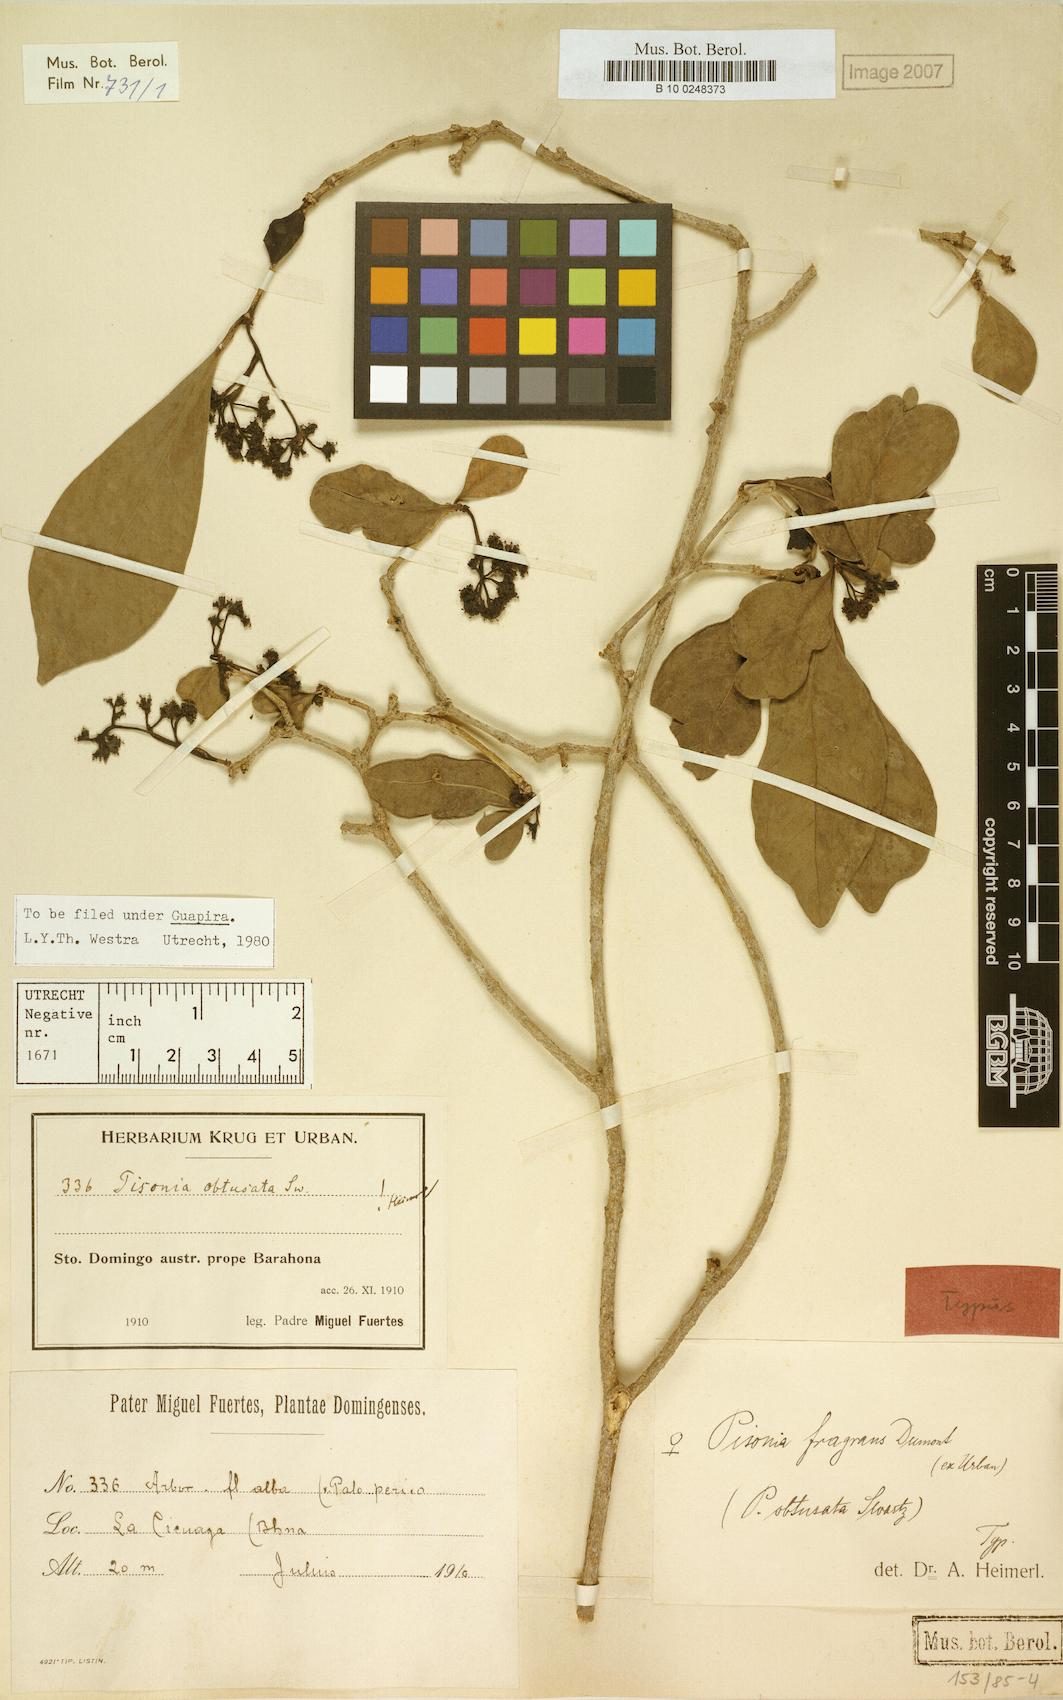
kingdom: Plantae
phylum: Tracheophyta
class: Magnoliopsida
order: Caryophyllales
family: Nyctaginaceae
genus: Guapira
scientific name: Guapira obtusata
